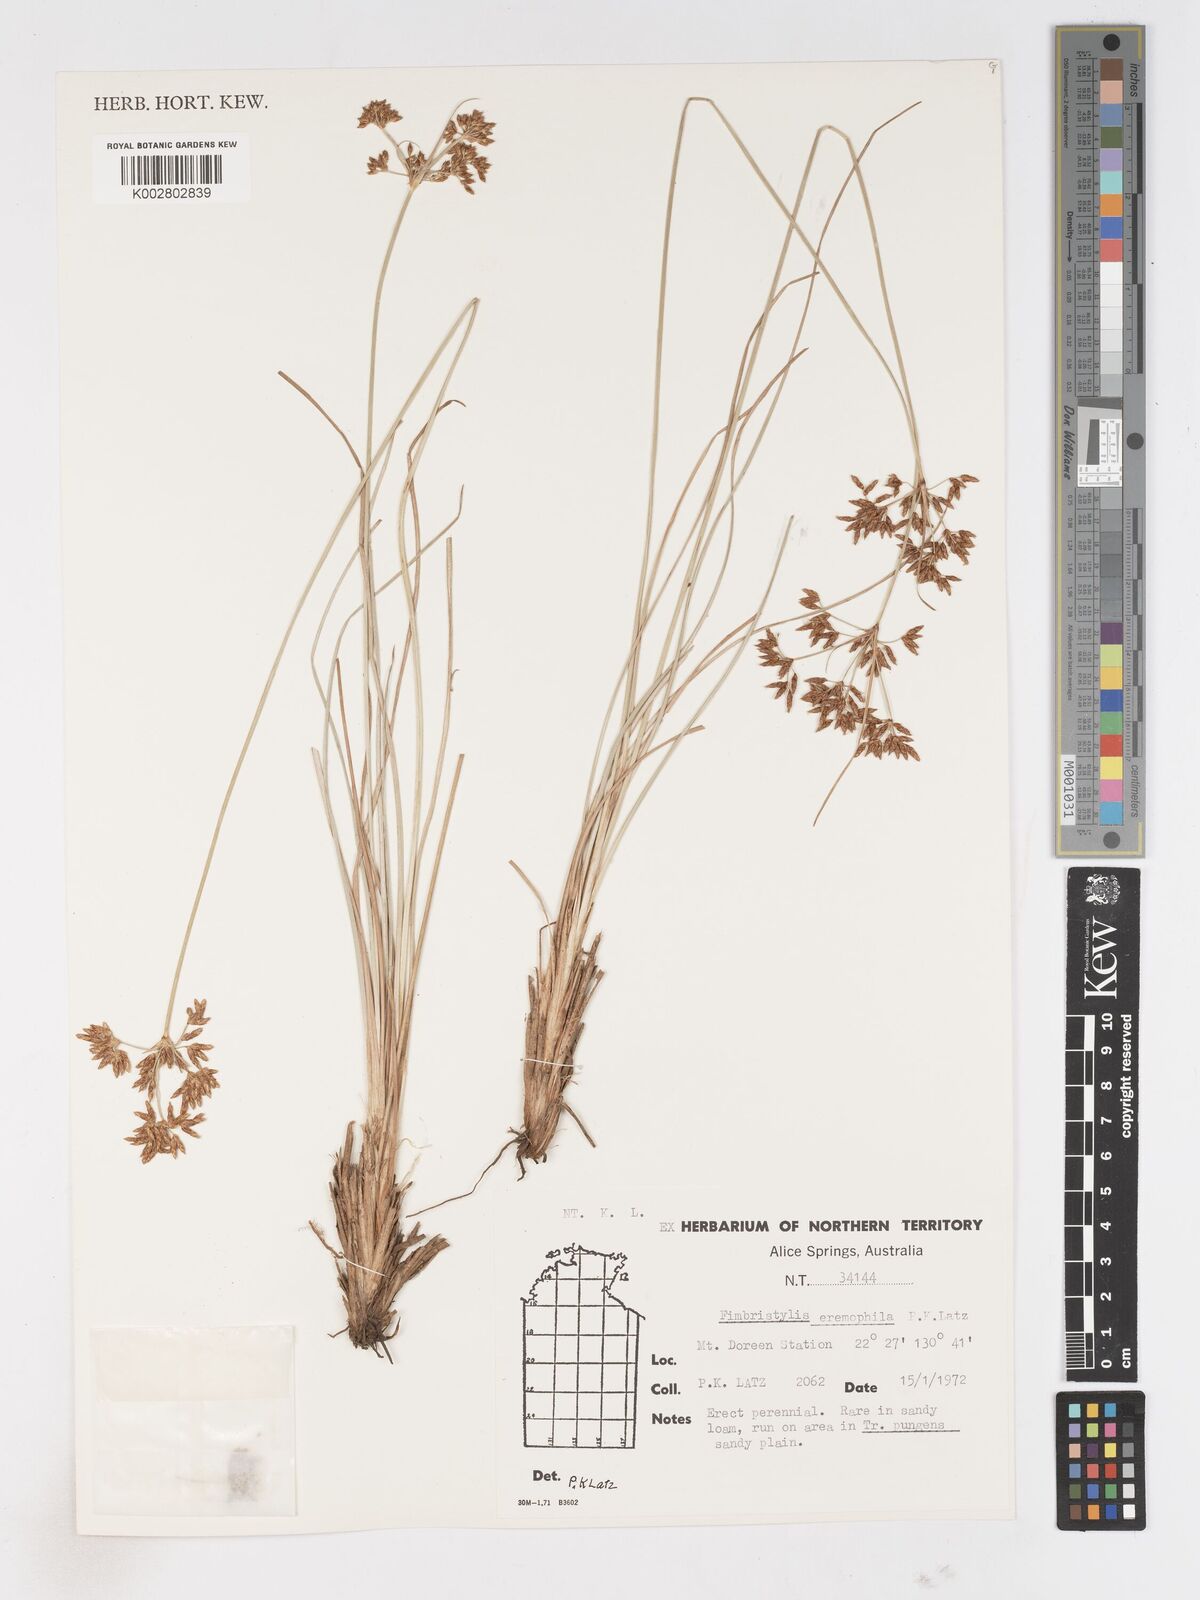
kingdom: Plantae
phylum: Tracheophyta
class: Liliopsida
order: Poales
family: Cyperaceae
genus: Fimbristylis
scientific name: Fimbristylis eremophila
